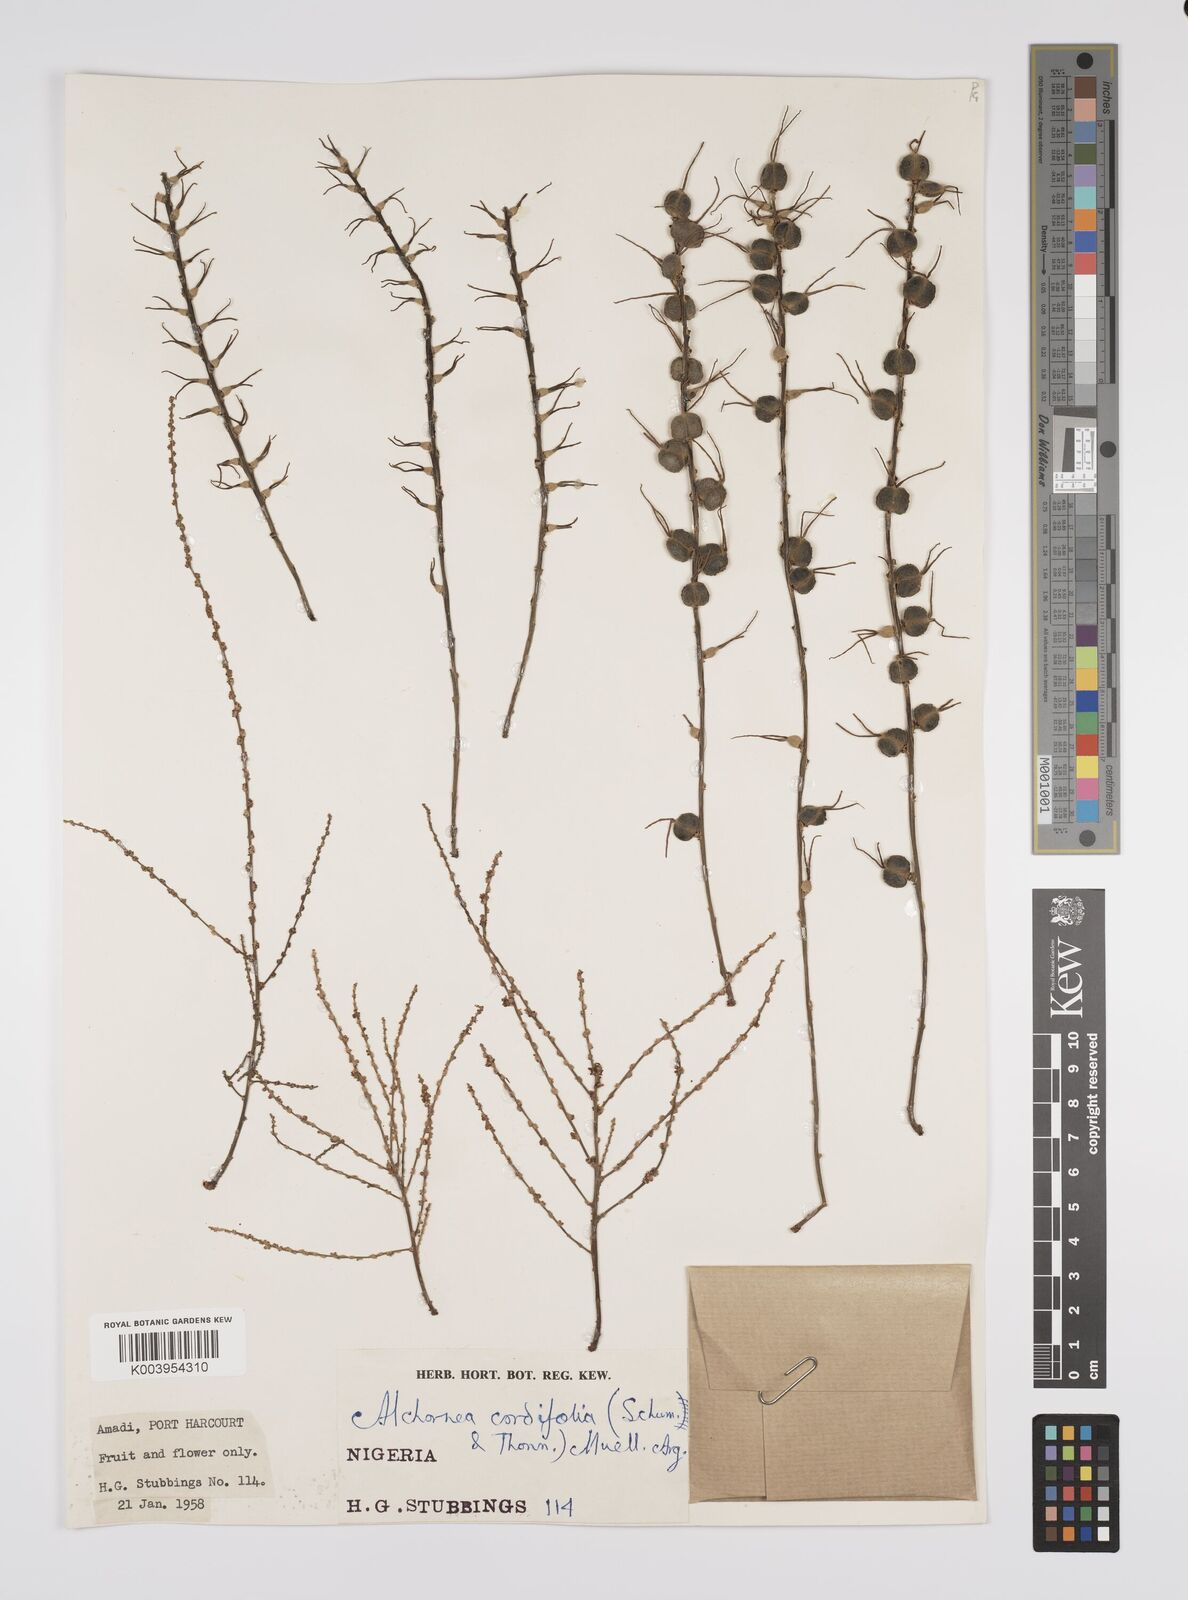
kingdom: Plantae
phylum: Tracheophyta
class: Magnoliopsida
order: Malpighiales
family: Euphorbiaceae
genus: Alchornea
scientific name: Alchornea cordifolia
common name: Christmasbush
